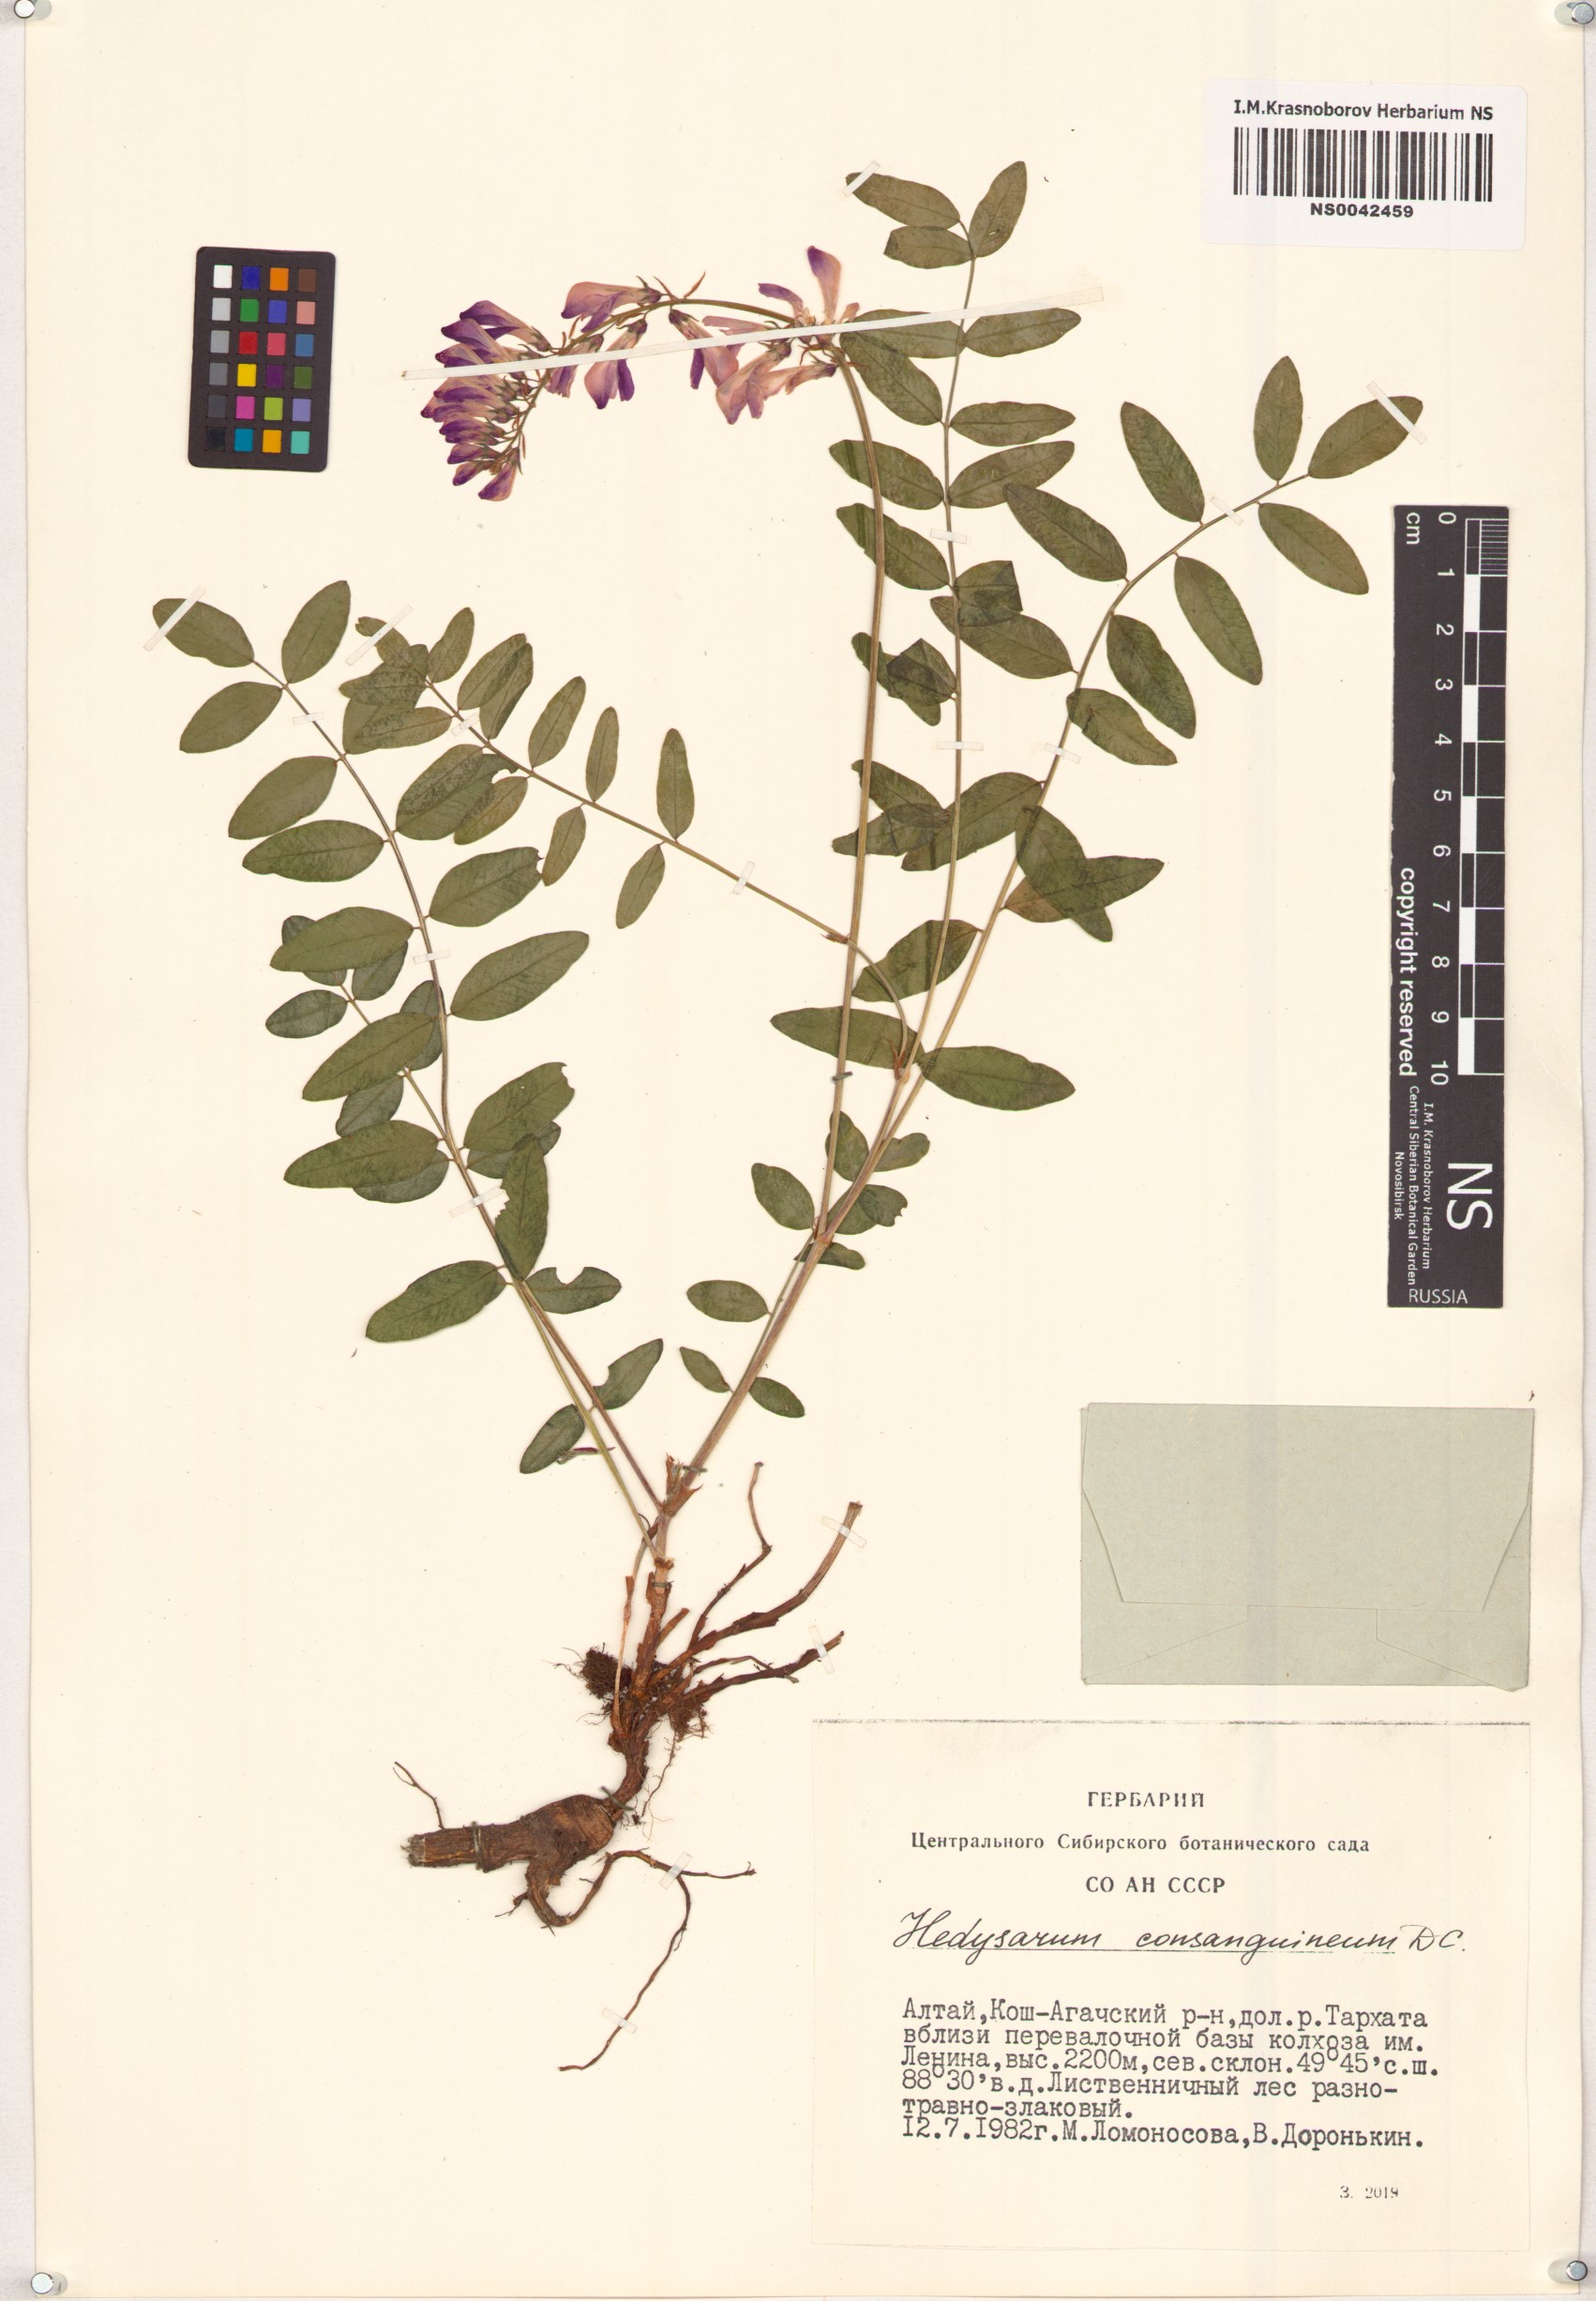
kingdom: Plantae
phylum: Tracheophyta
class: Magnoliopsida
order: Fabales
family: Fabaceae
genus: Hedysarum
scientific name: Hedysarum consanguineum
